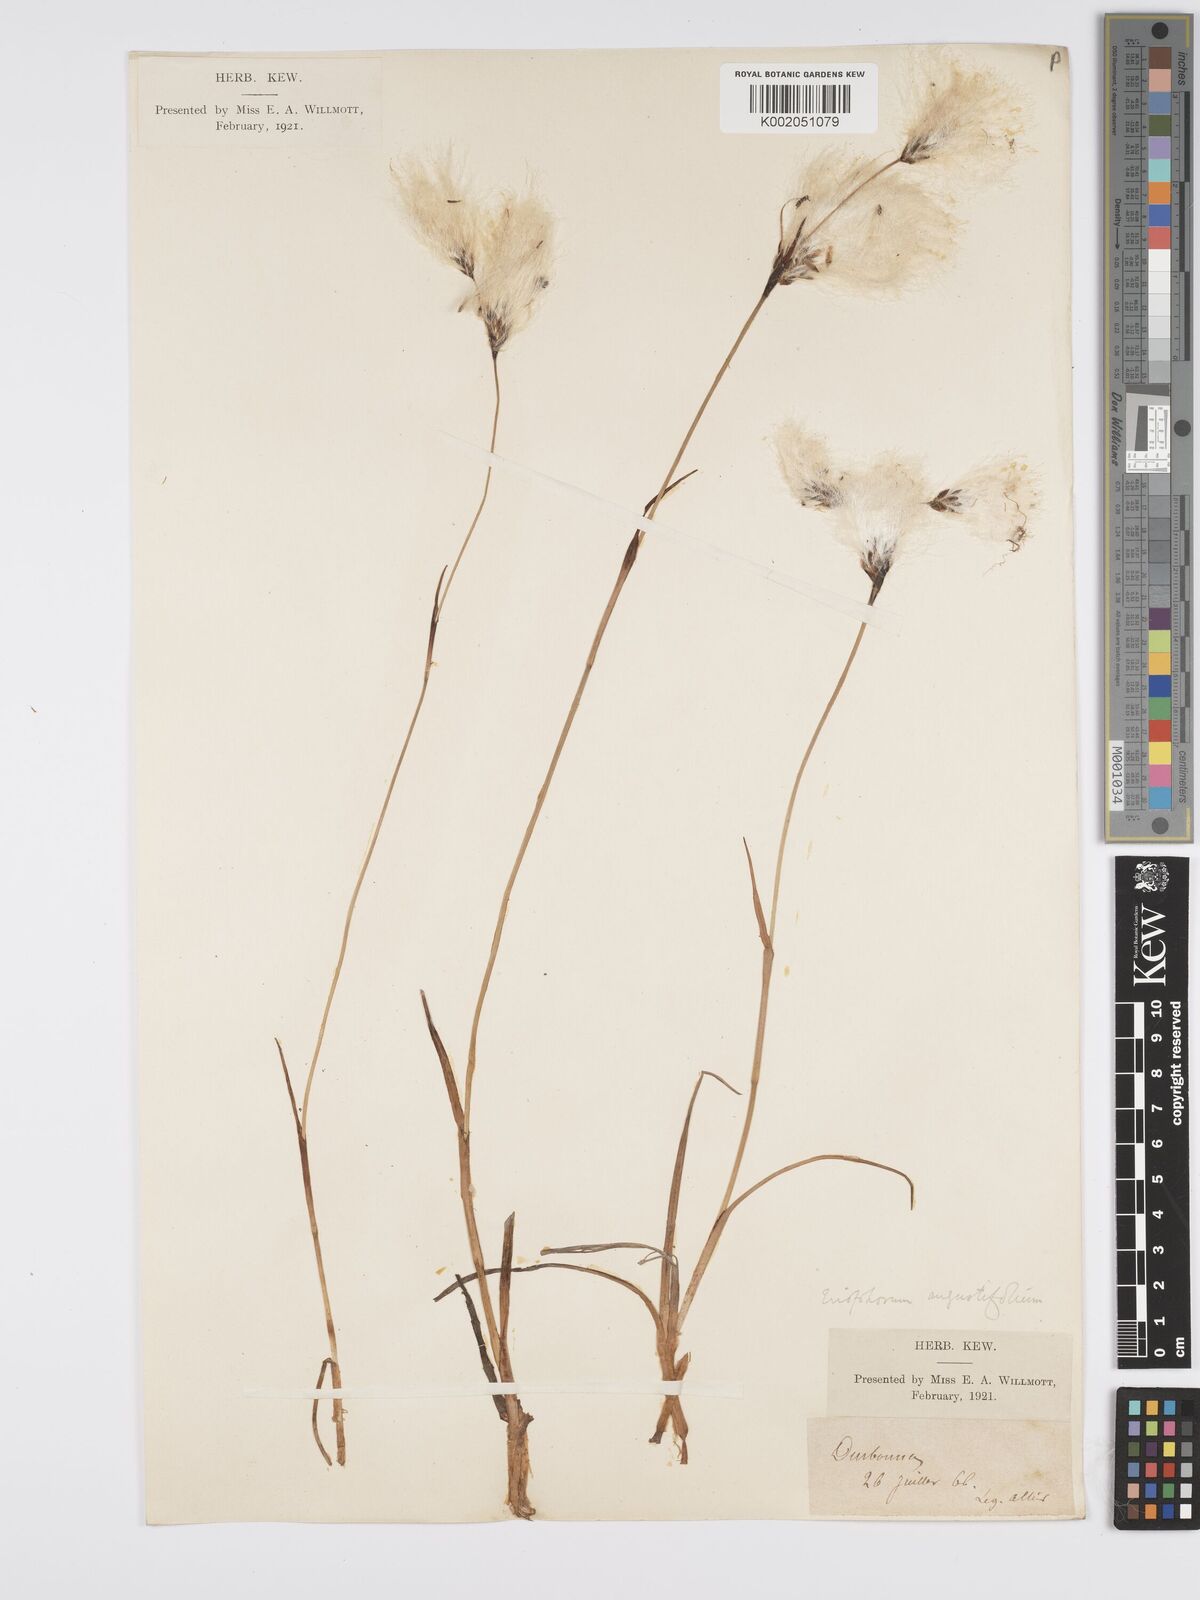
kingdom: Plantae
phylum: Tracheophyta
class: Liliopsida
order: Poales
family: Cyperaceae
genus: Eriophorum
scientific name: Eriophorum angustifolium
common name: Common cottongrass
